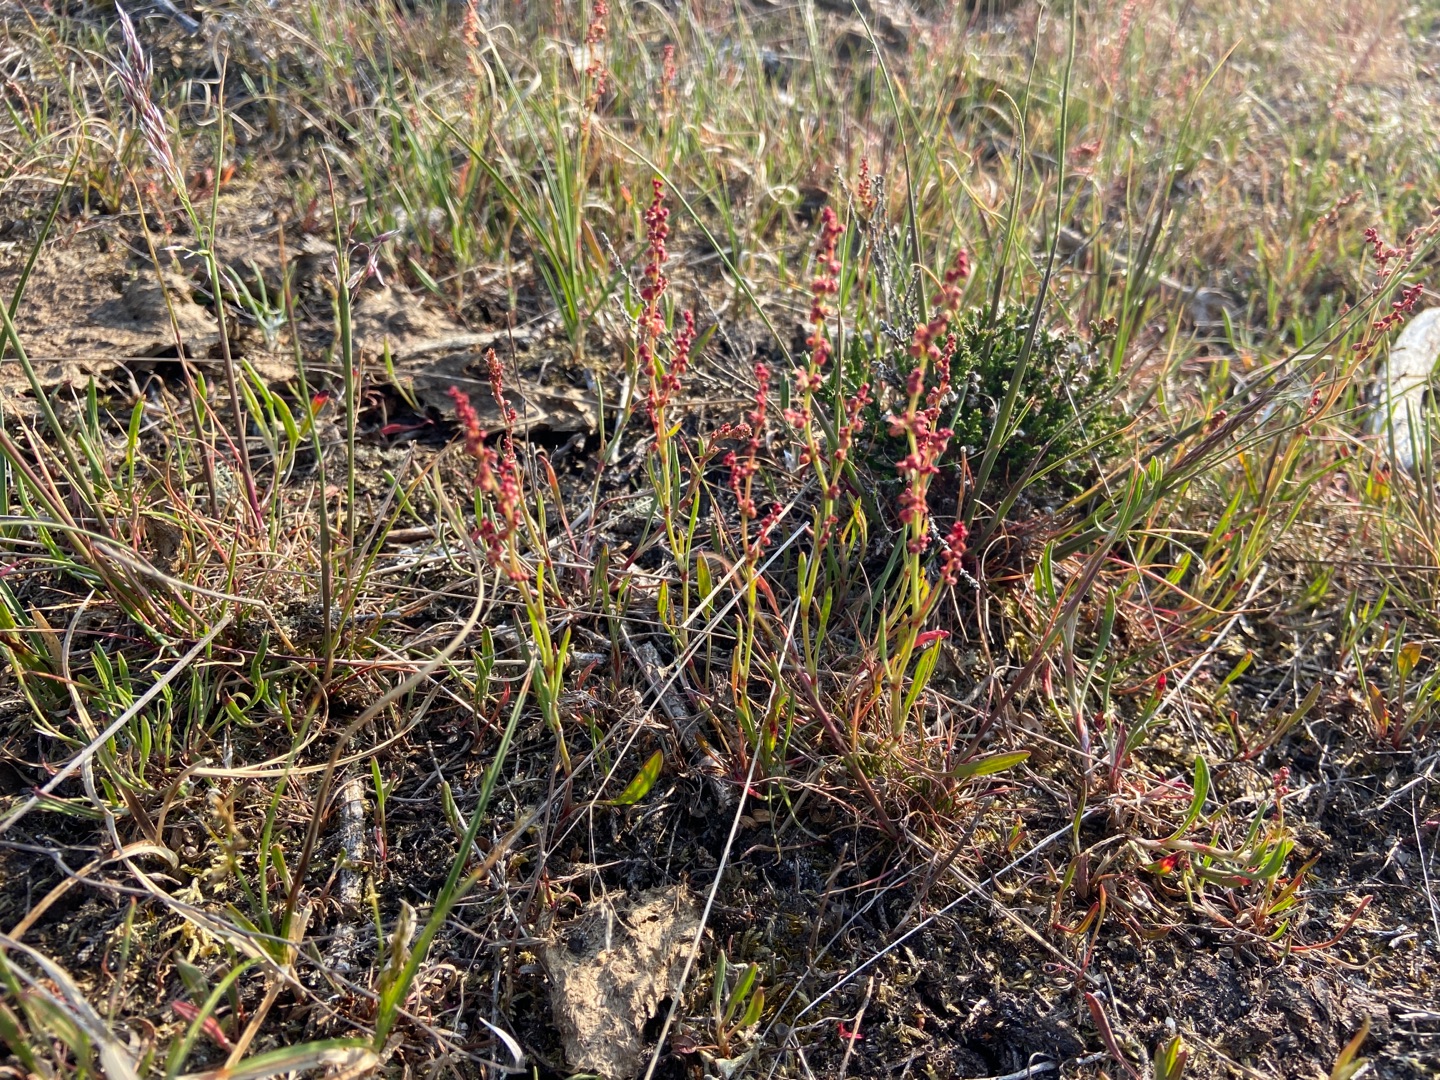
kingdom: Plantae
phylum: Tracheophyta
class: Magnoliopsida
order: Caryophyllales
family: Polygonaceae
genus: Rumex
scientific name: Rumex acetosella
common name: Rødknæ
